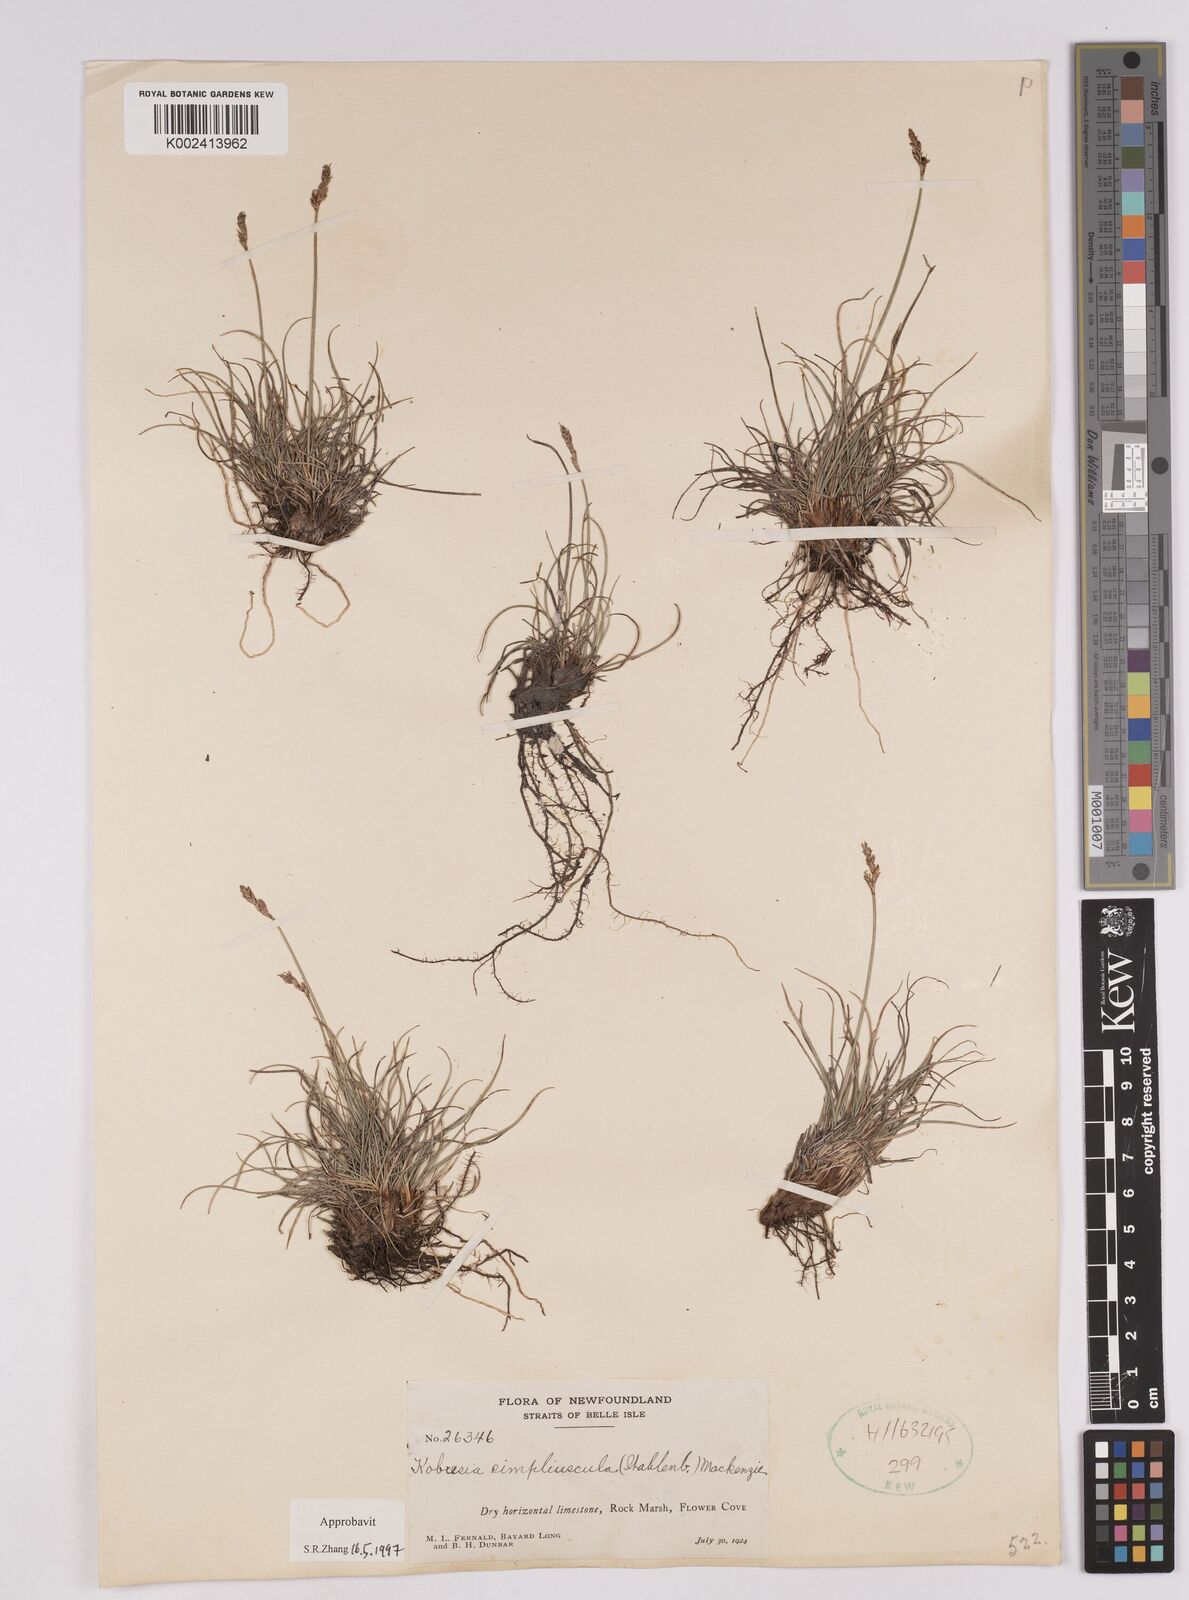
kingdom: Plantae
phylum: Tracheophyta
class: Liliopsida
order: Poales
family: Cyperaceae
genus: Carex
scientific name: Carex simpliciuscula
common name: Simple bog sedge
